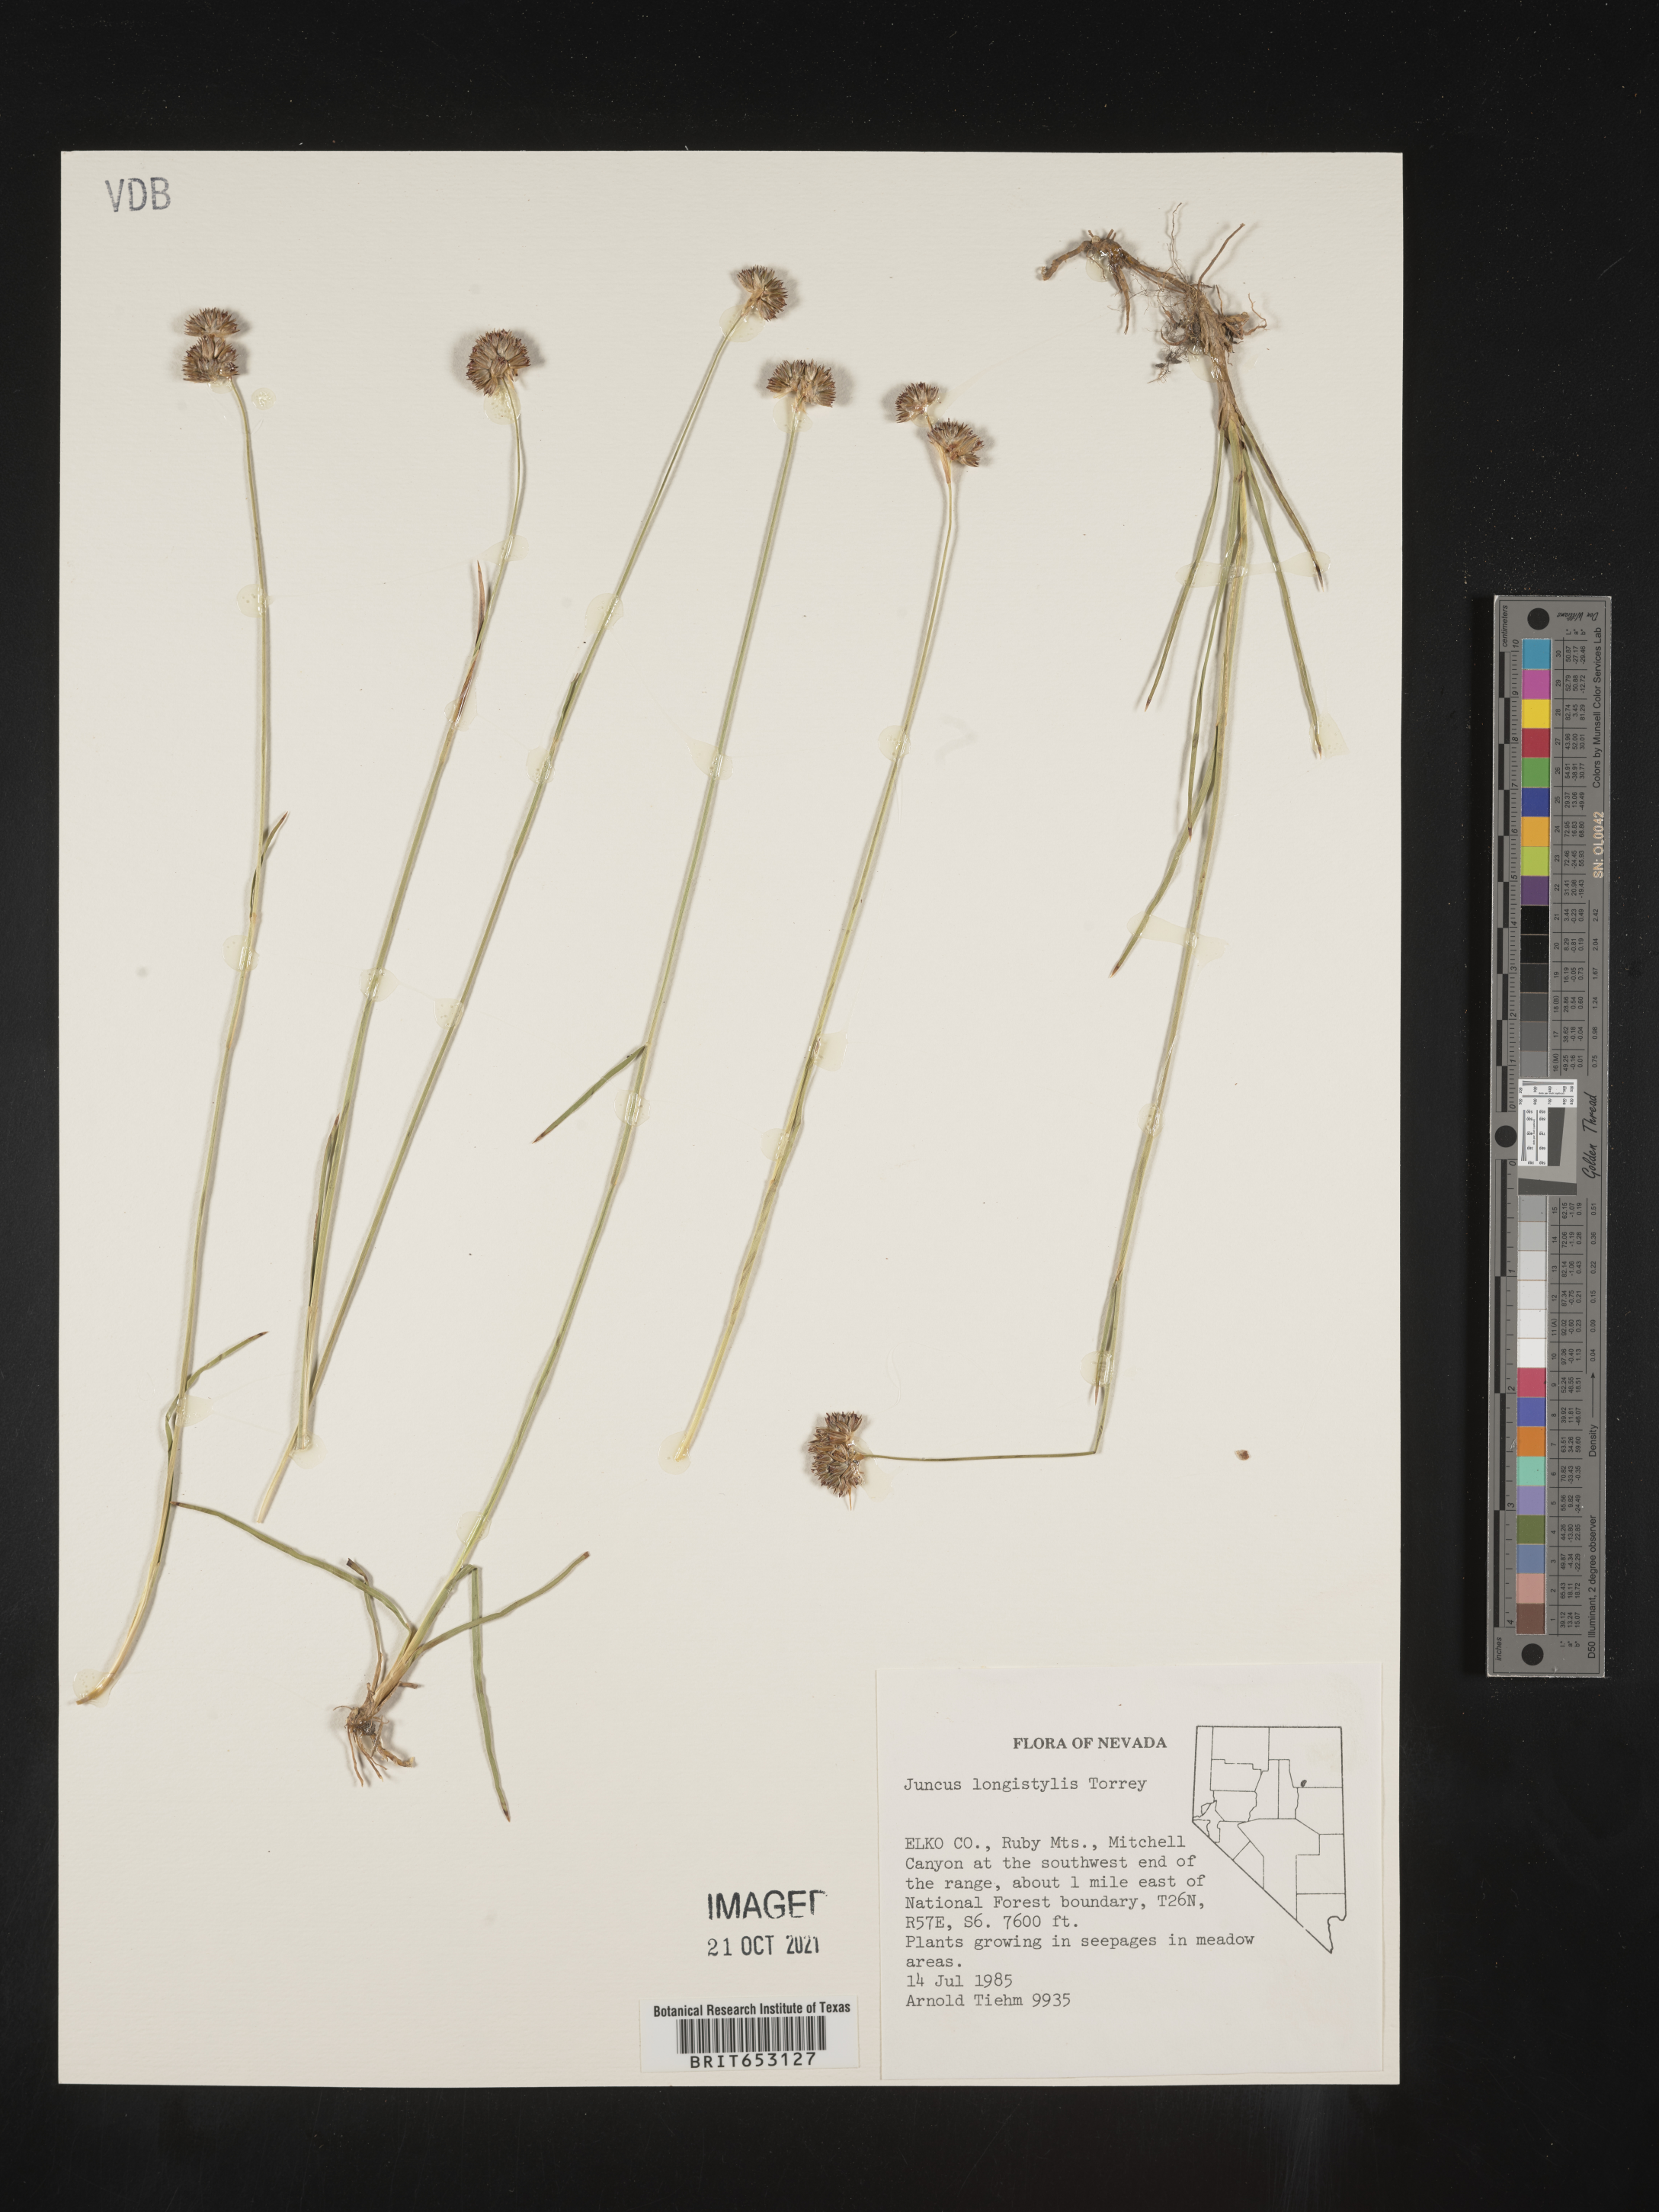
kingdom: Plantae
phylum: Tracheophyta
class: Liliopsida
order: Poales
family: Juncaceae
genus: Juncus
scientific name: Juncus longistylis
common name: Long-style rush
